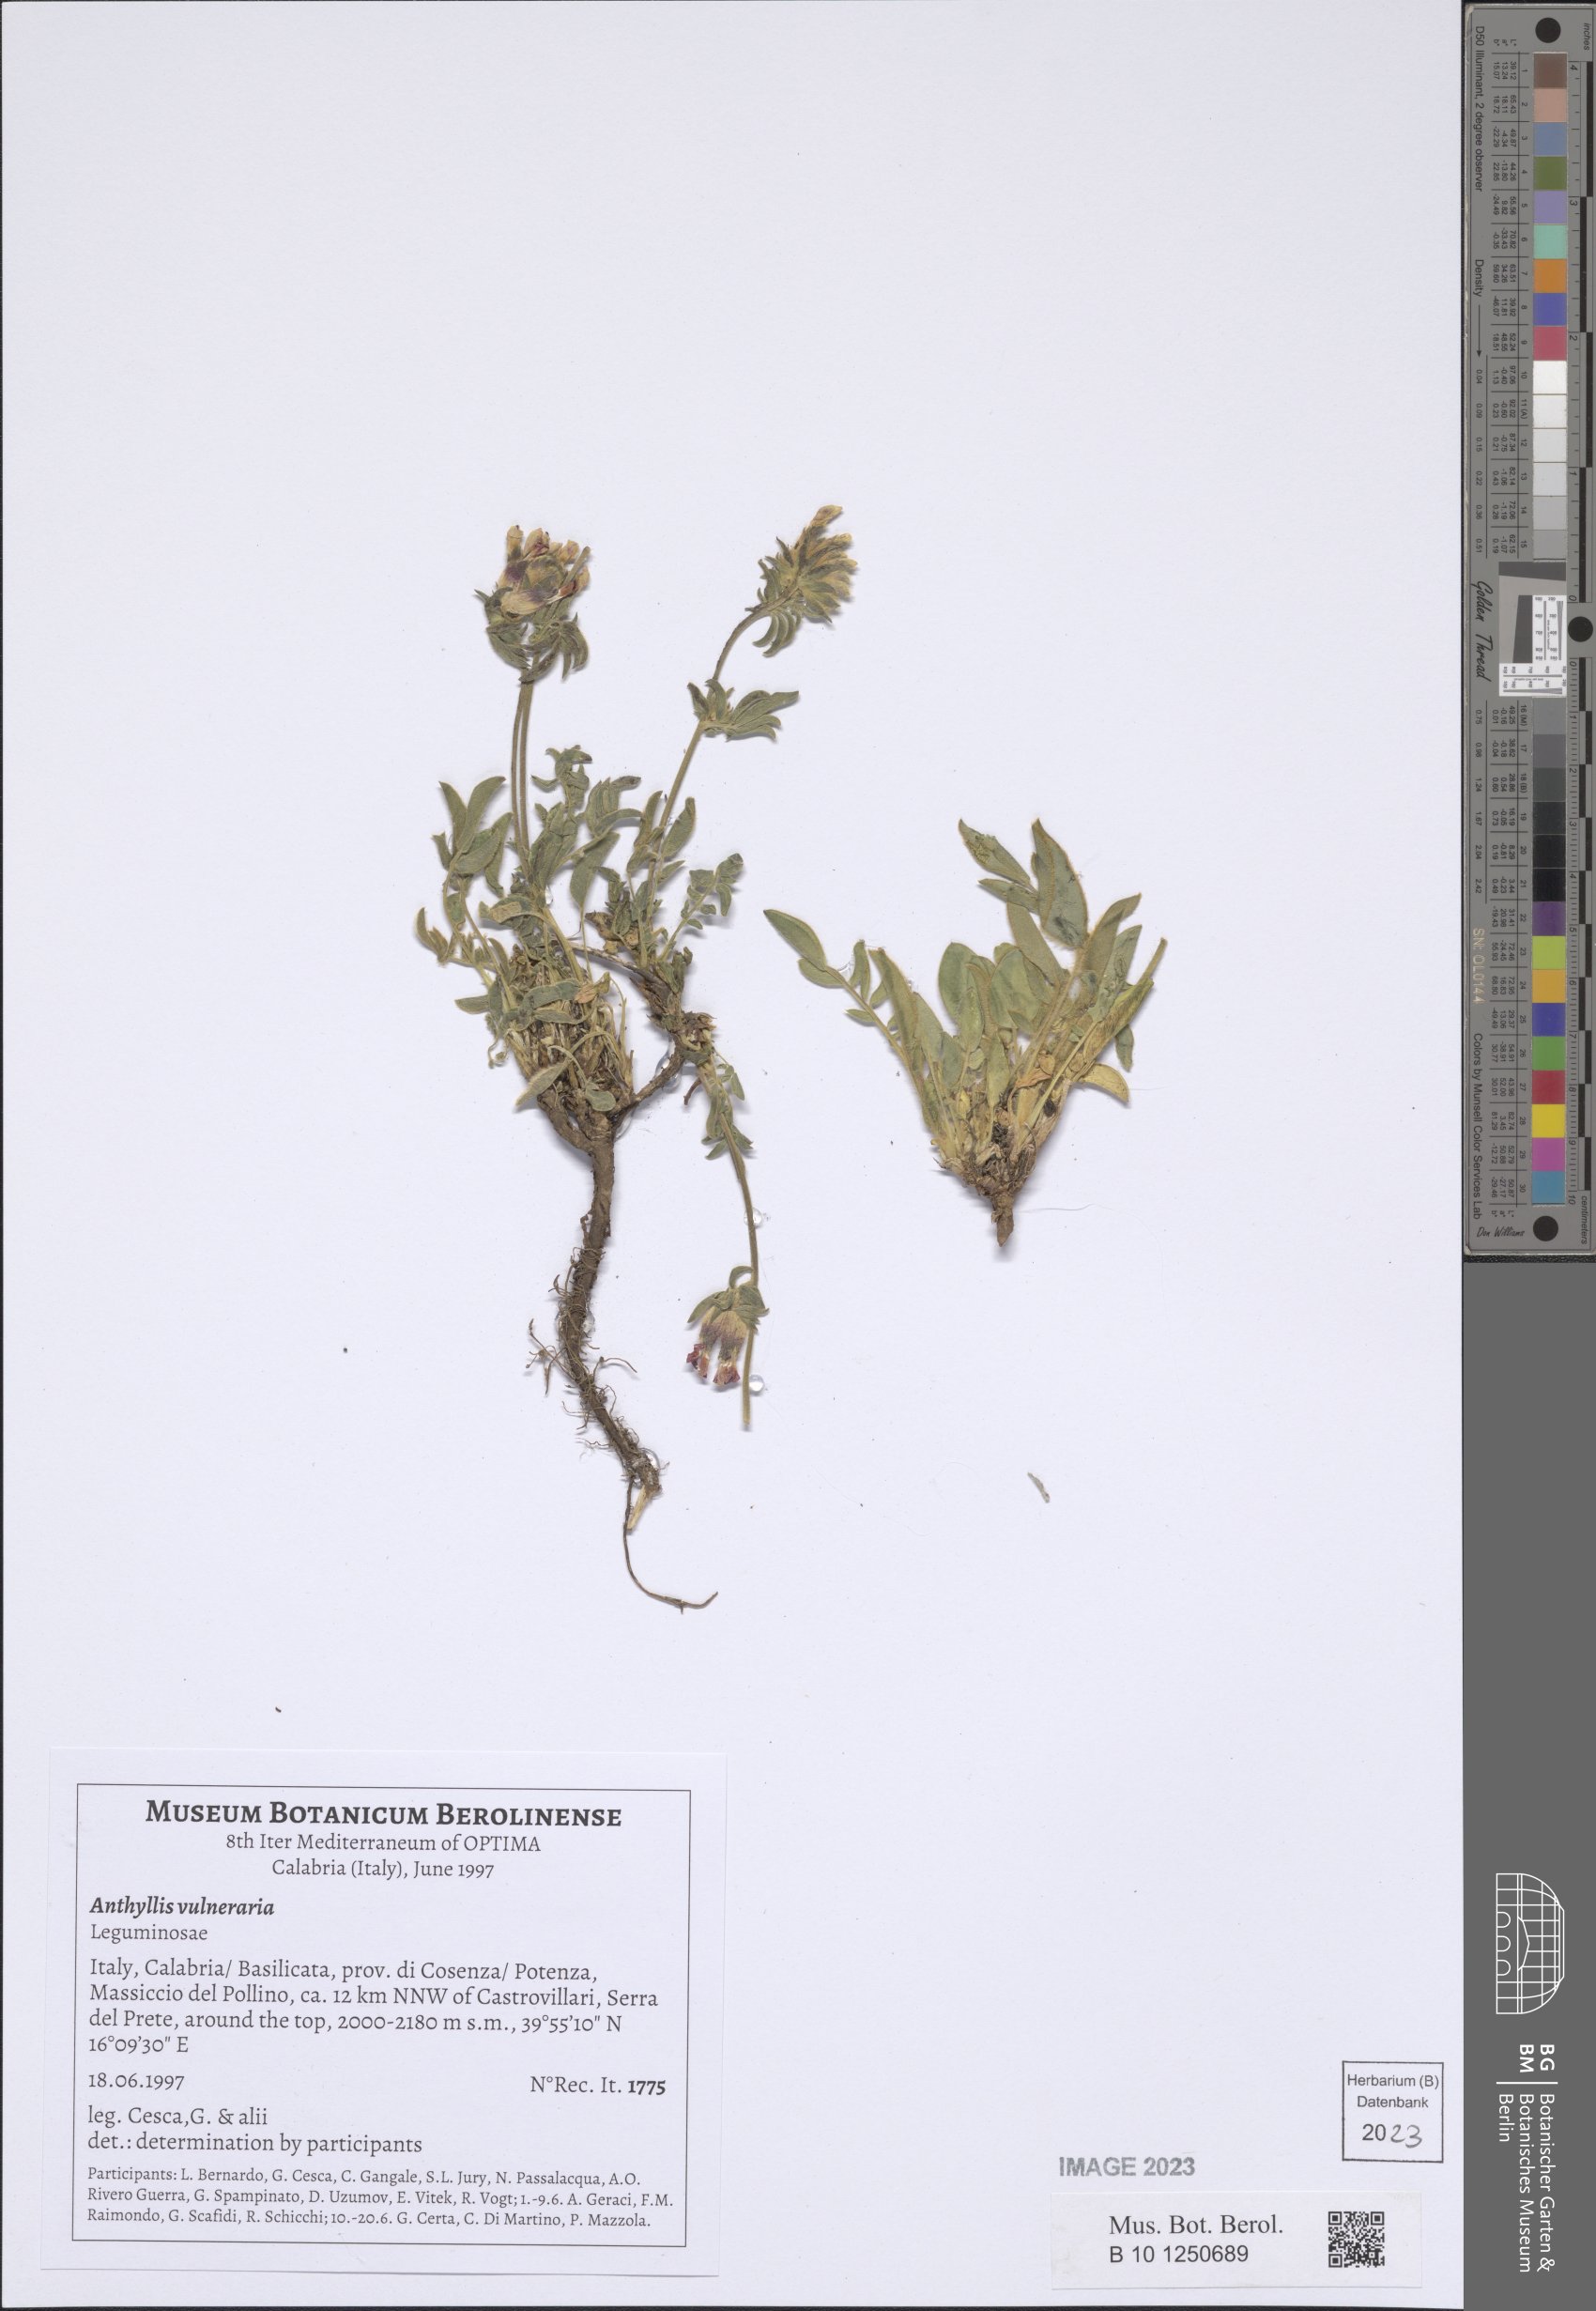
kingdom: Plantae
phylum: Tracheophyta
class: Magnoliopsida
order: Fabales
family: Fabaceae
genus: Anthyllis
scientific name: Anthyllis vulneraria
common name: Kidney vetch
